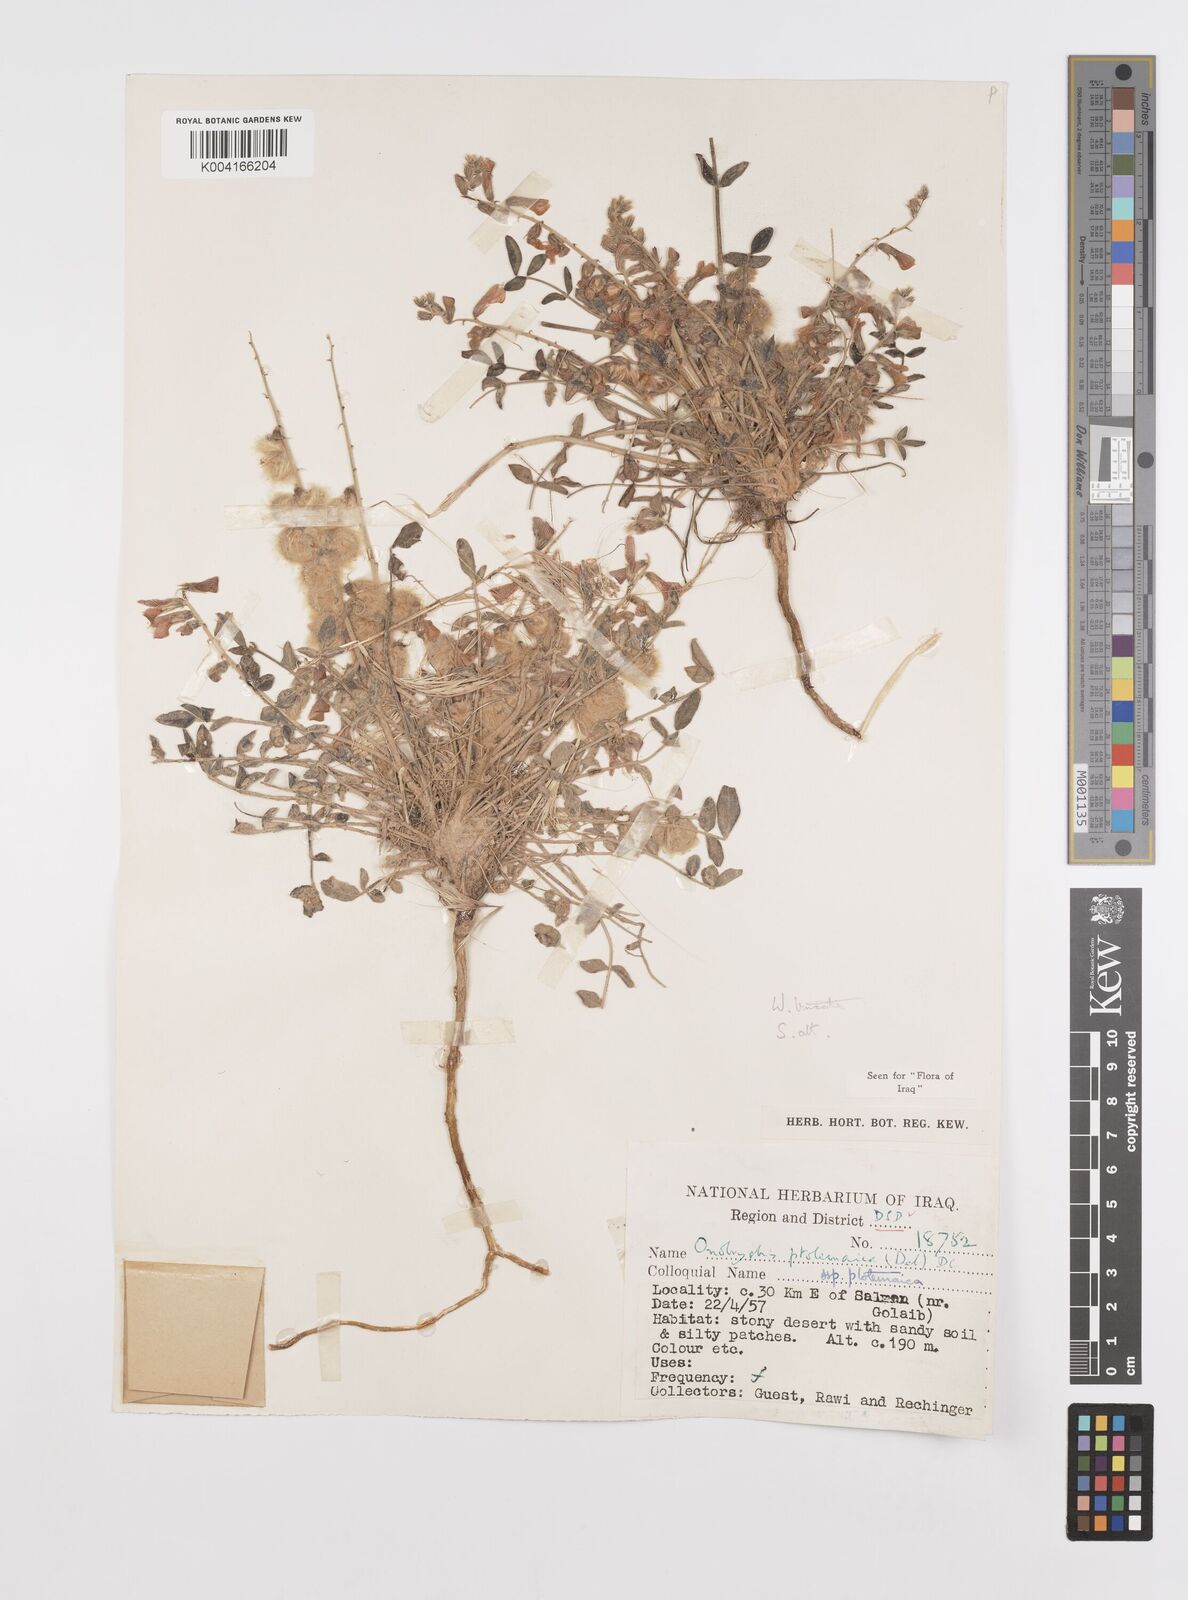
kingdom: Plantae
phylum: Tracheophyta
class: Magnoliopsida
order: Fabales
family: Fabaceae
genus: Onobrychis
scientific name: Onobrychis ptolemaica
